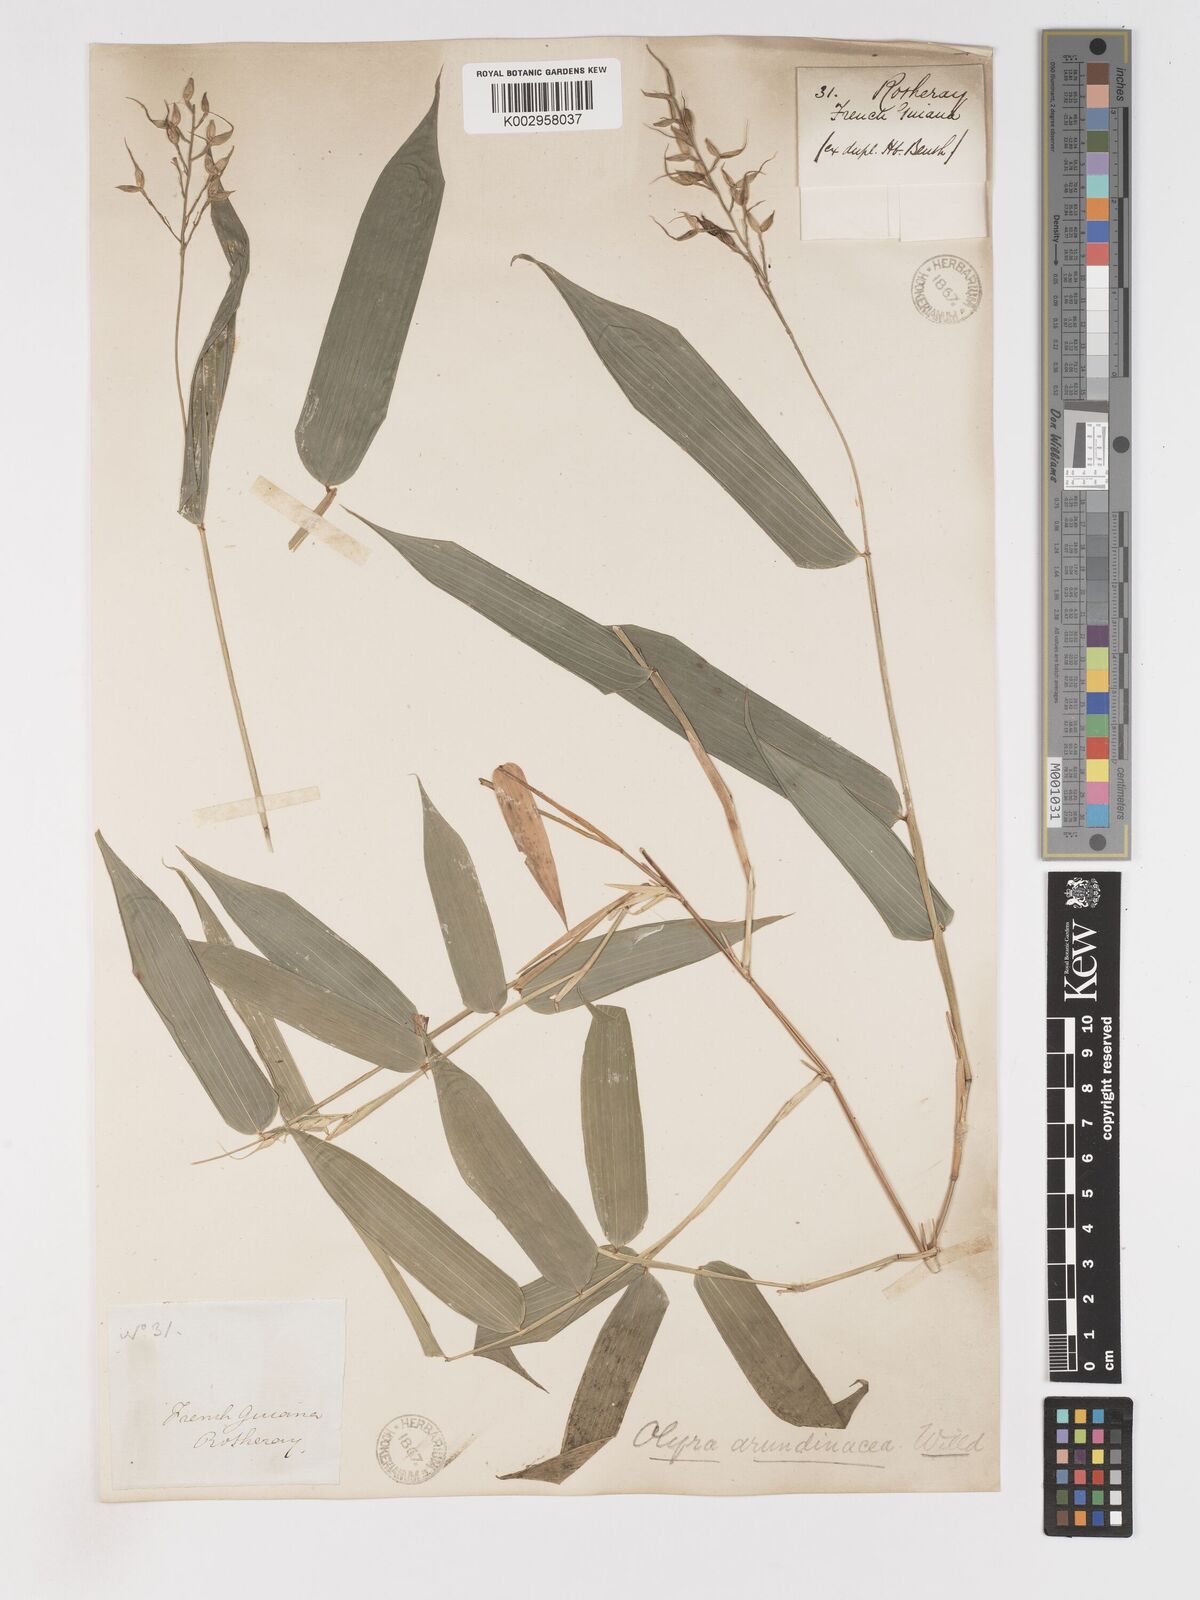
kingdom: Plantae
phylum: Tracheophyta
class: Liliopsida
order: Poales
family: Poaceae
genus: Olyra
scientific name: Olyra latifolia
